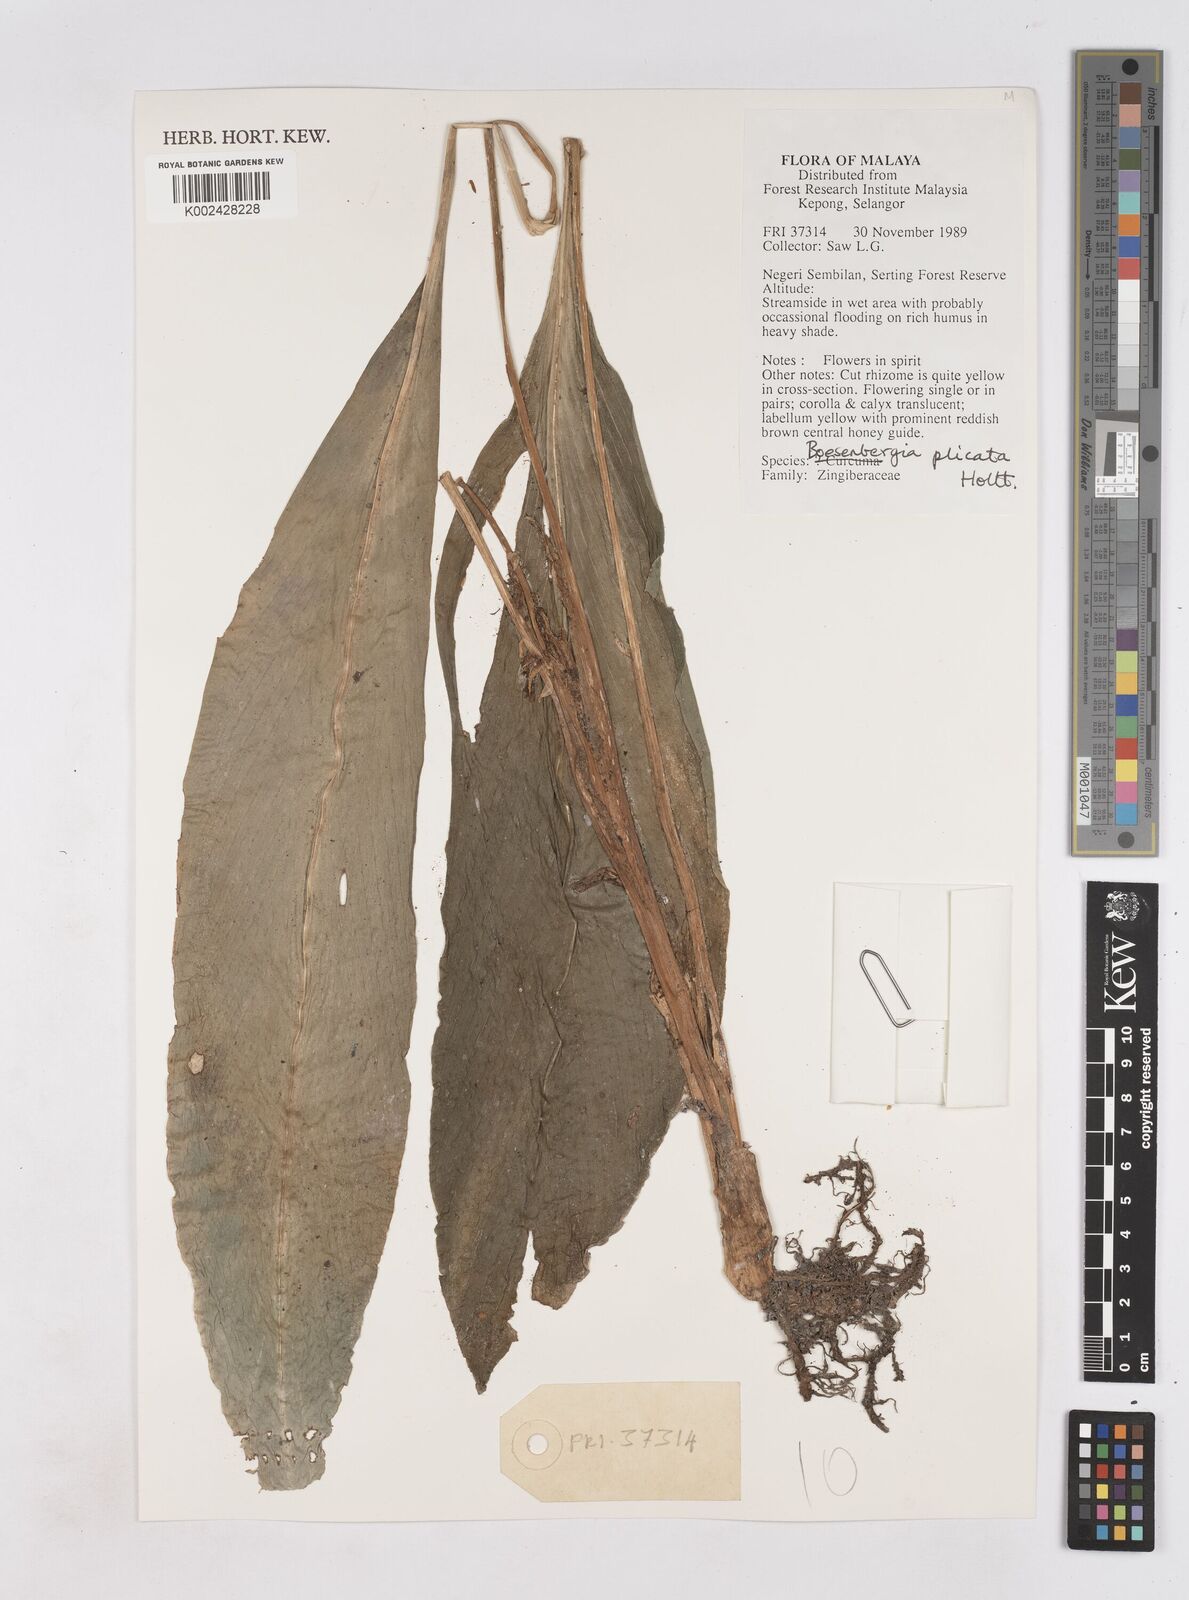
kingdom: Plantae
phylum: Tracheophyta
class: Liliopsida
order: Zingiberales
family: Zingiberaceae
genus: Boesenbergia
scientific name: Boesenbergia plicata
